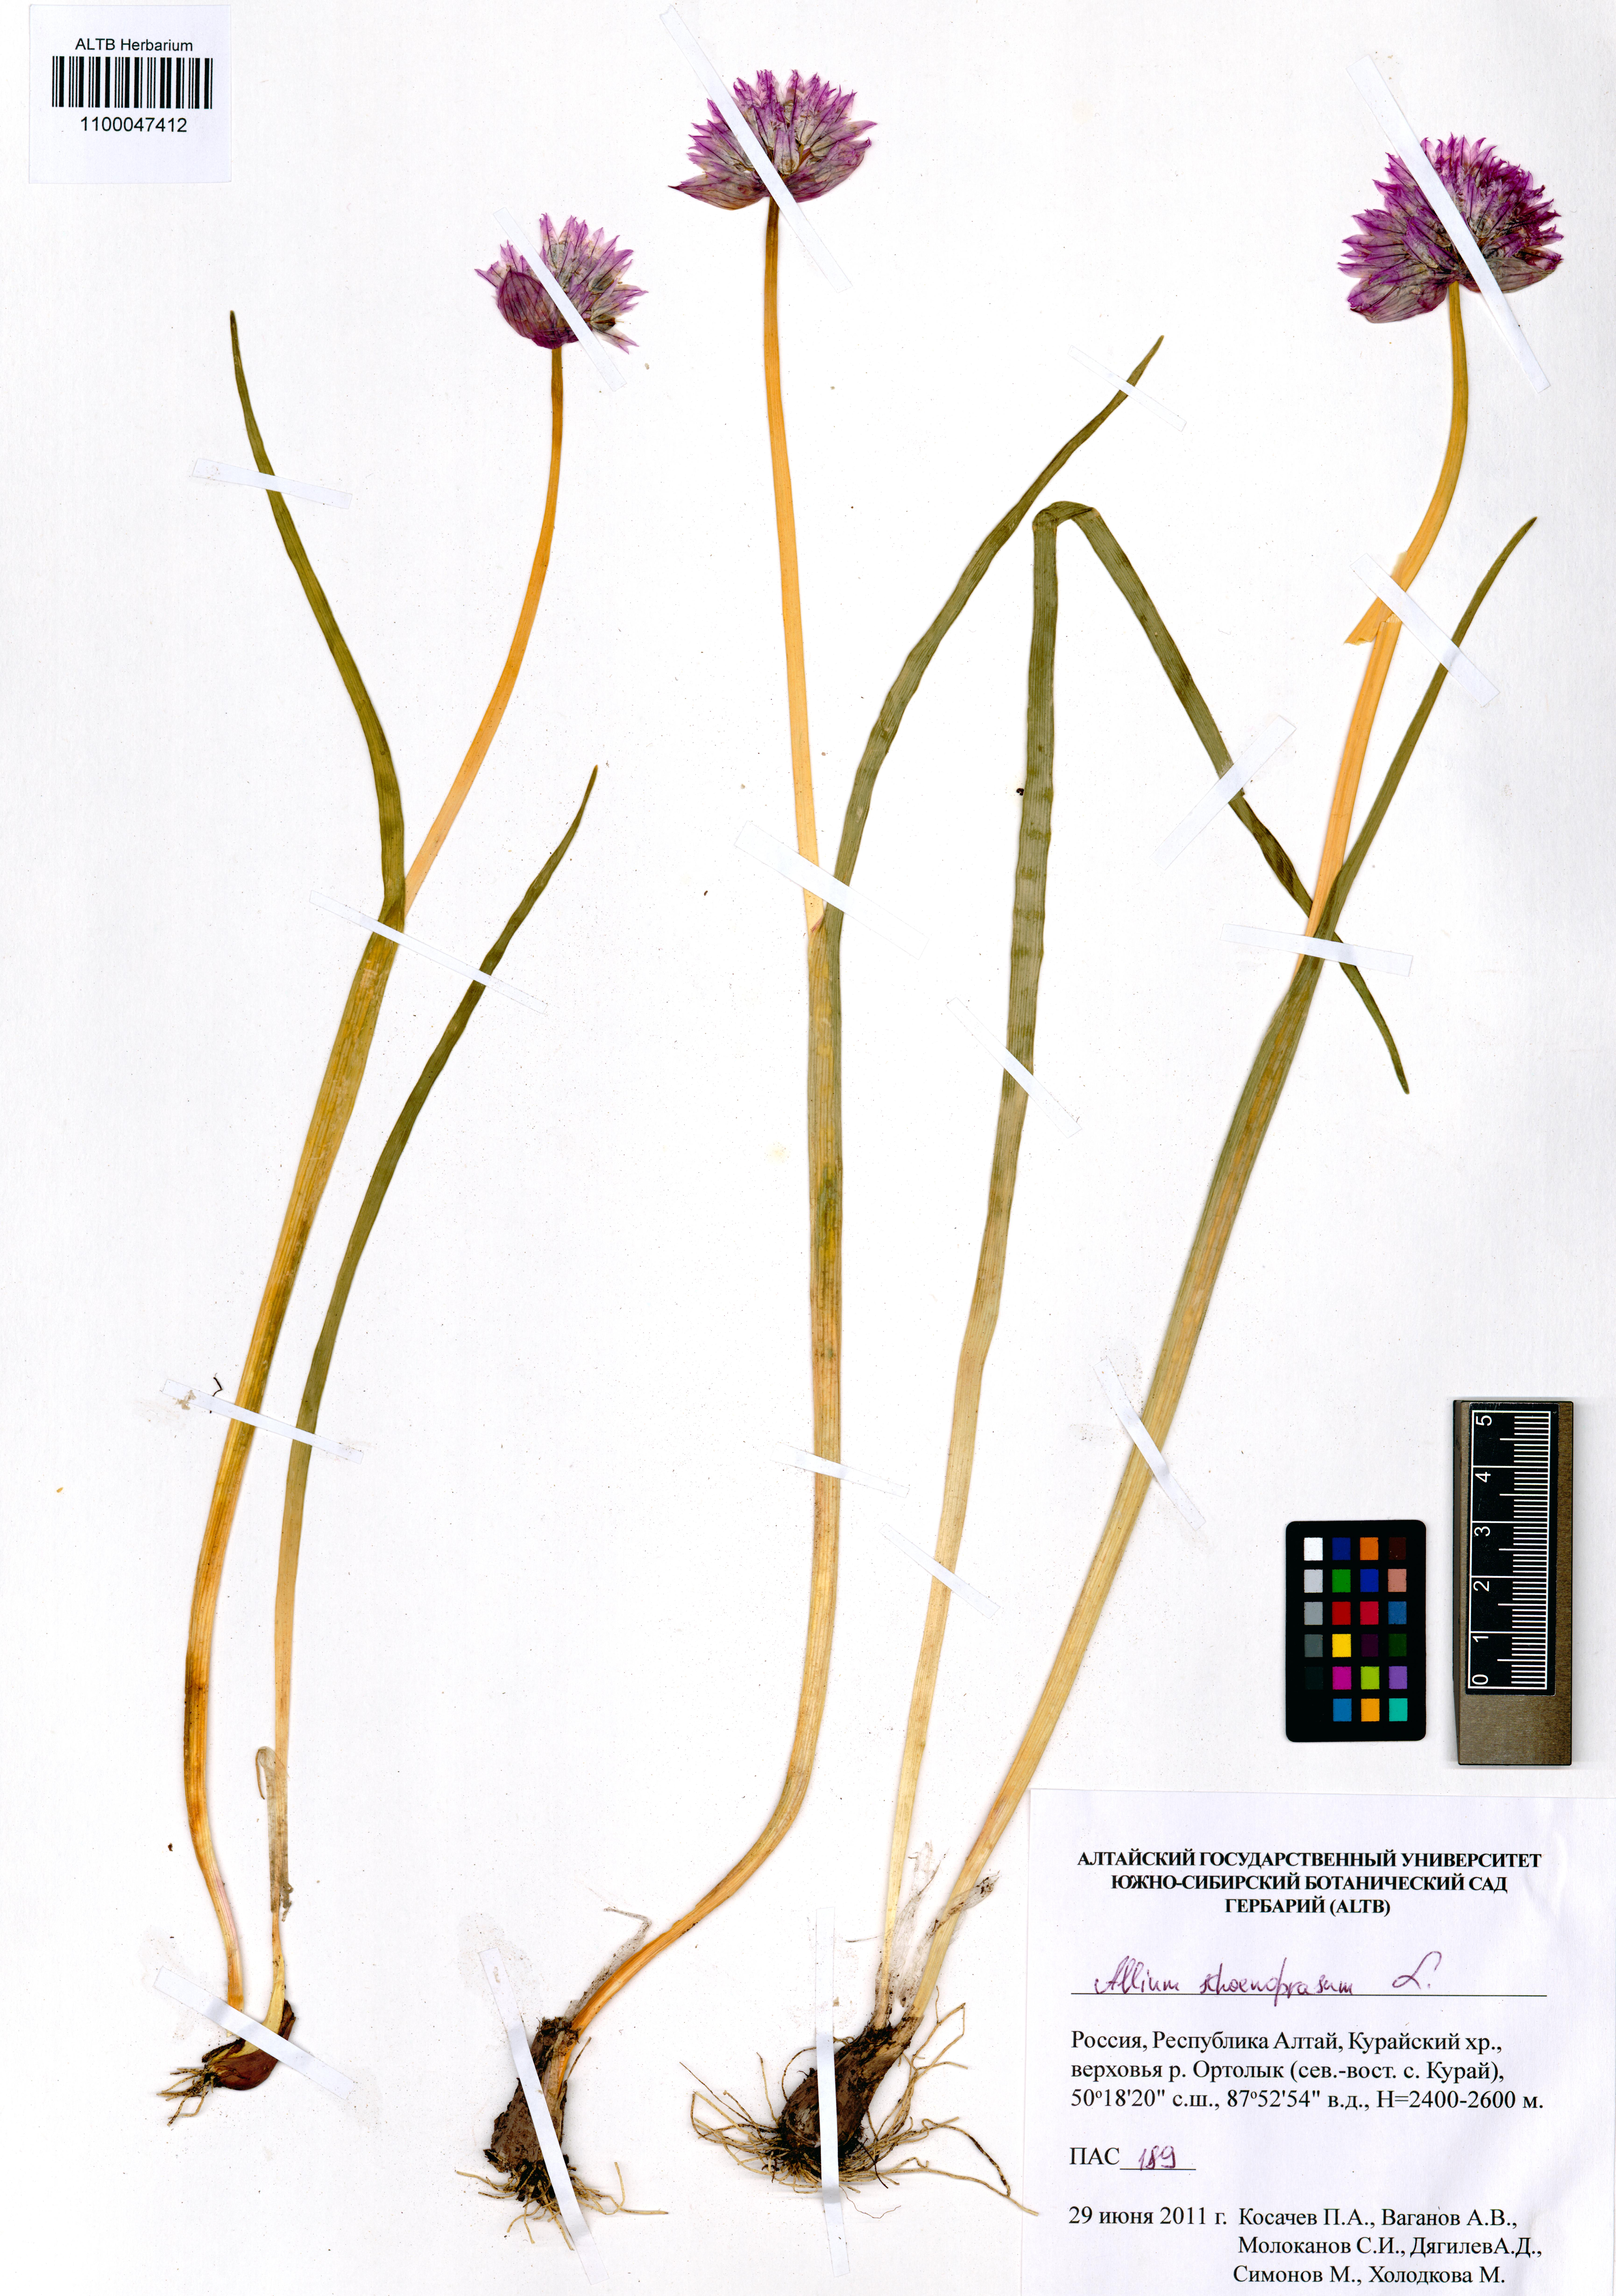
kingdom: Plantae
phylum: Tracheophyta
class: Liliopsida
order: Asparagales
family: Amaryllidaceae
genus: Allium
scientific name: Allium schoenoprasum
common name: Chives
